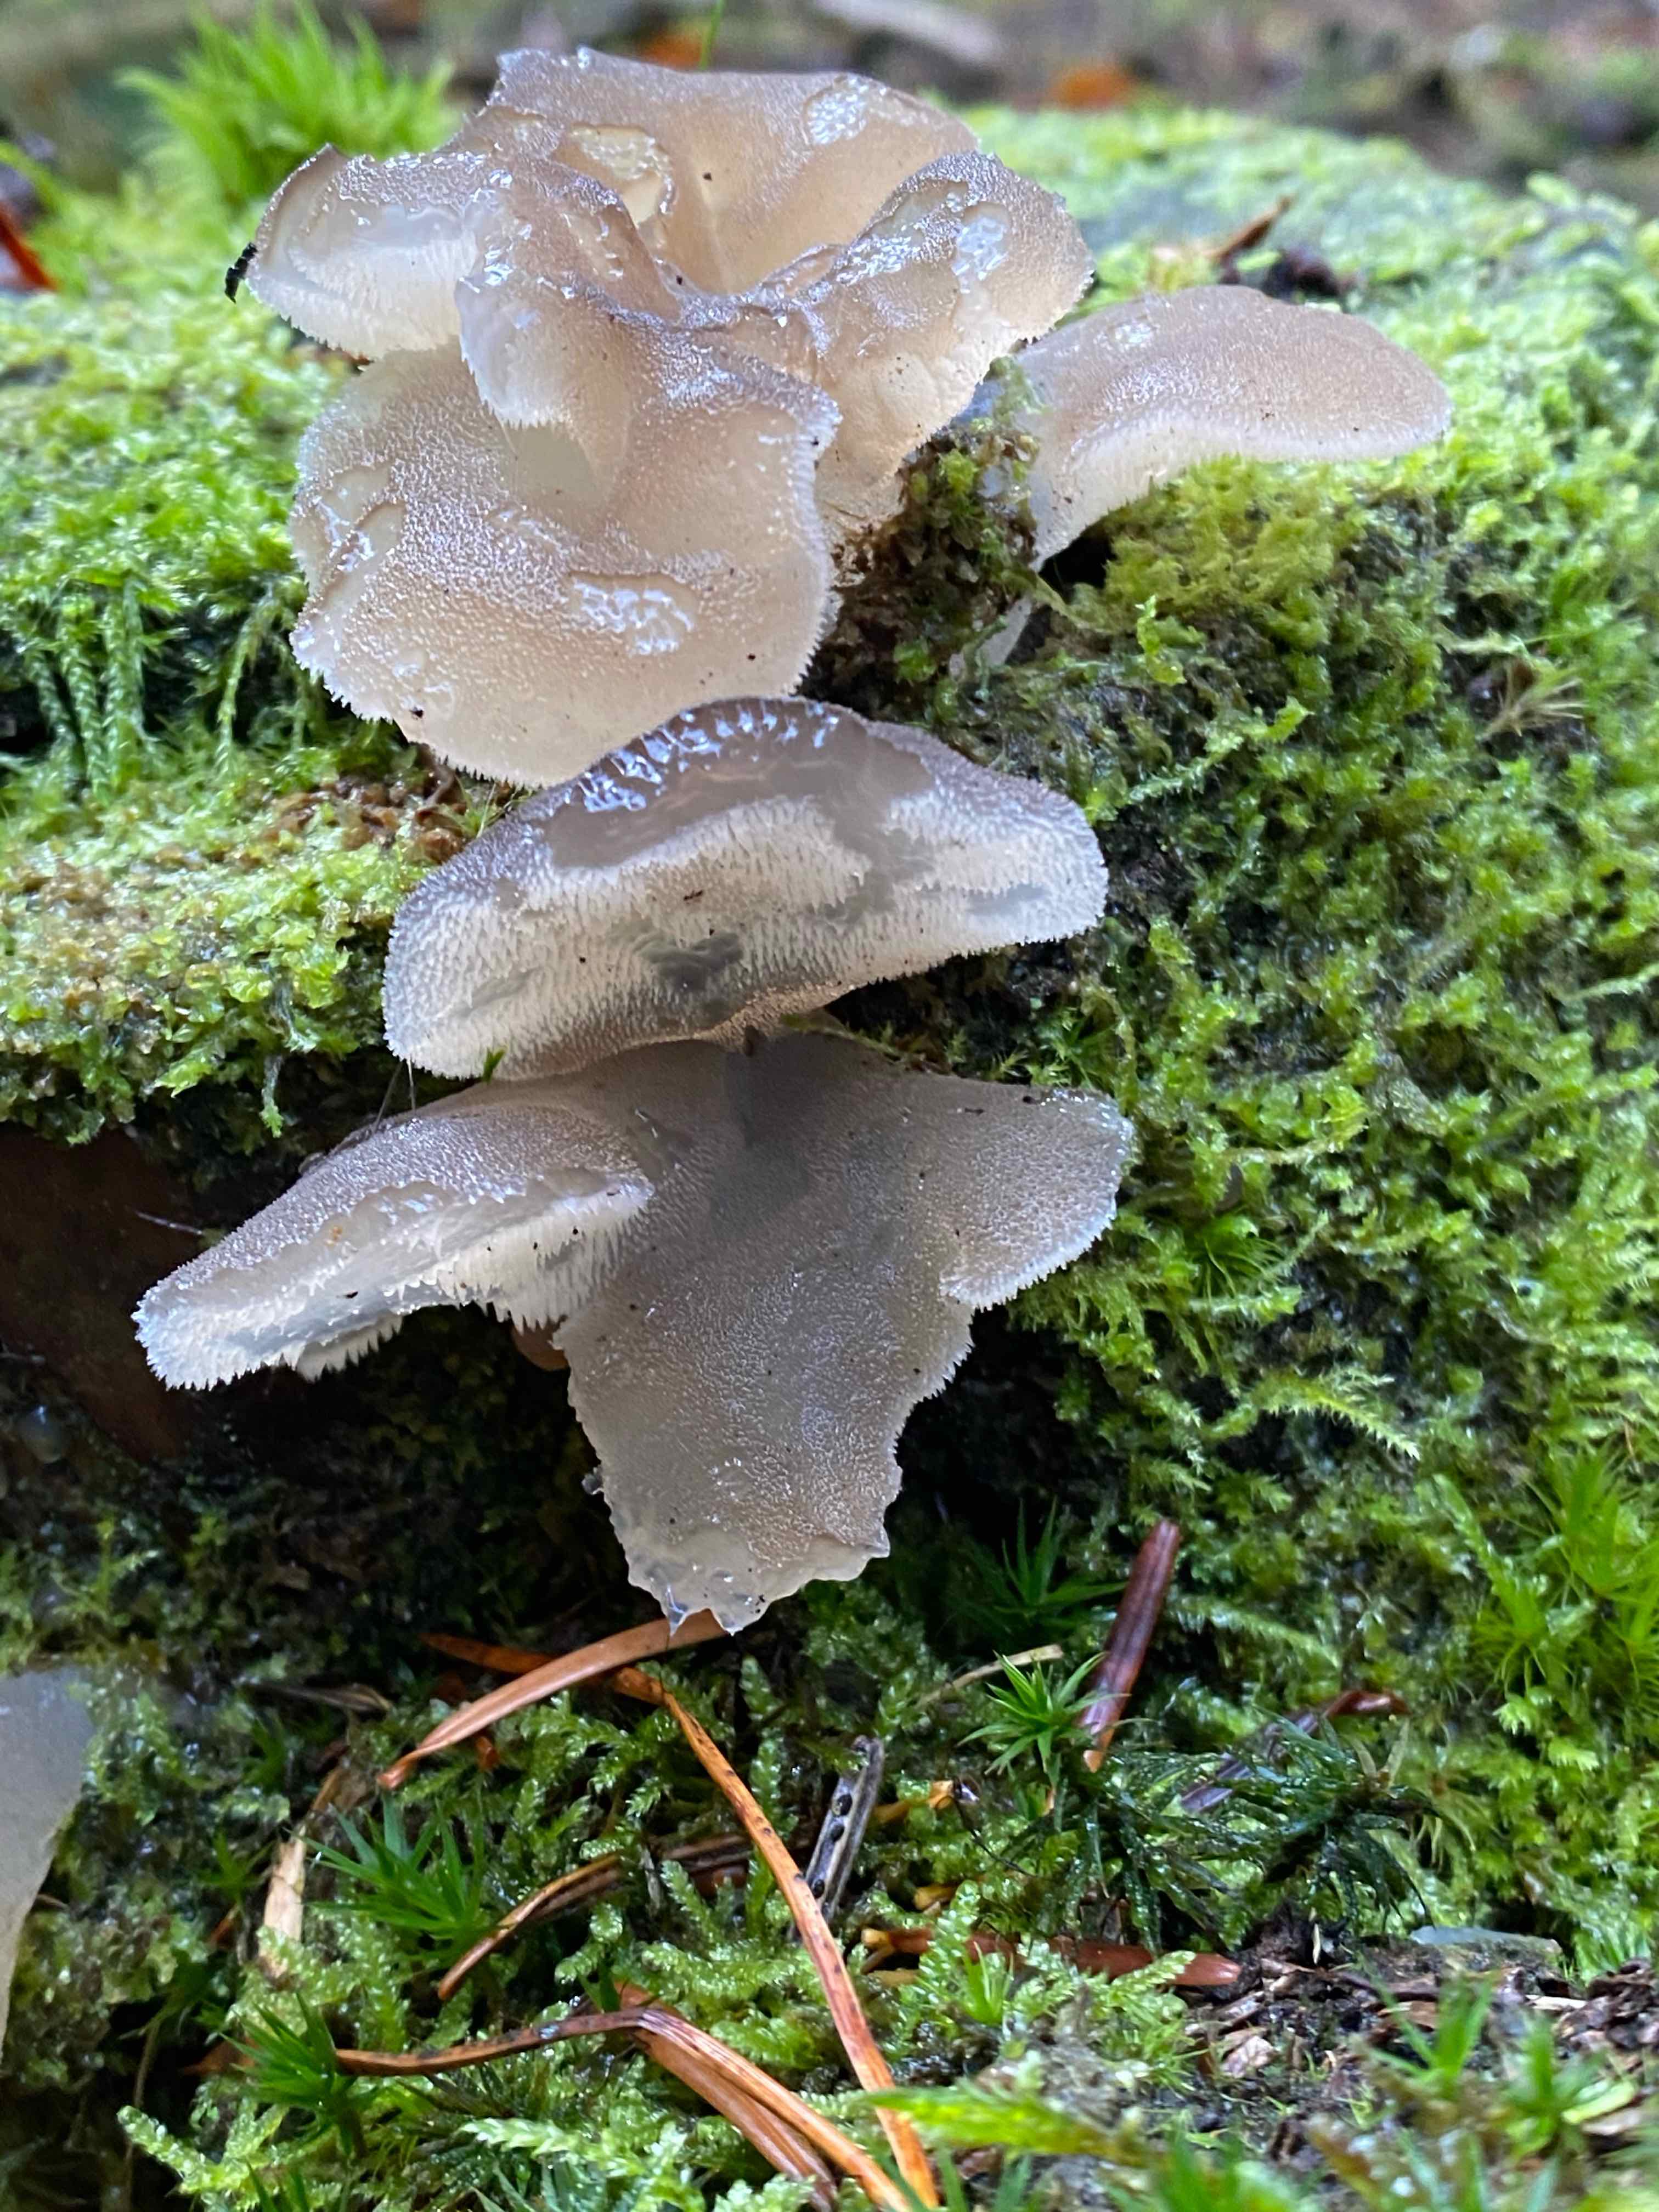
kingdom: Fungi
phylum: Basidiomycota
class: Agaricomycetes
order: Auriculariales
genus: Pseudohydnum
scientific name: Pseudohydnum gelatinosum
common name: bævretand
